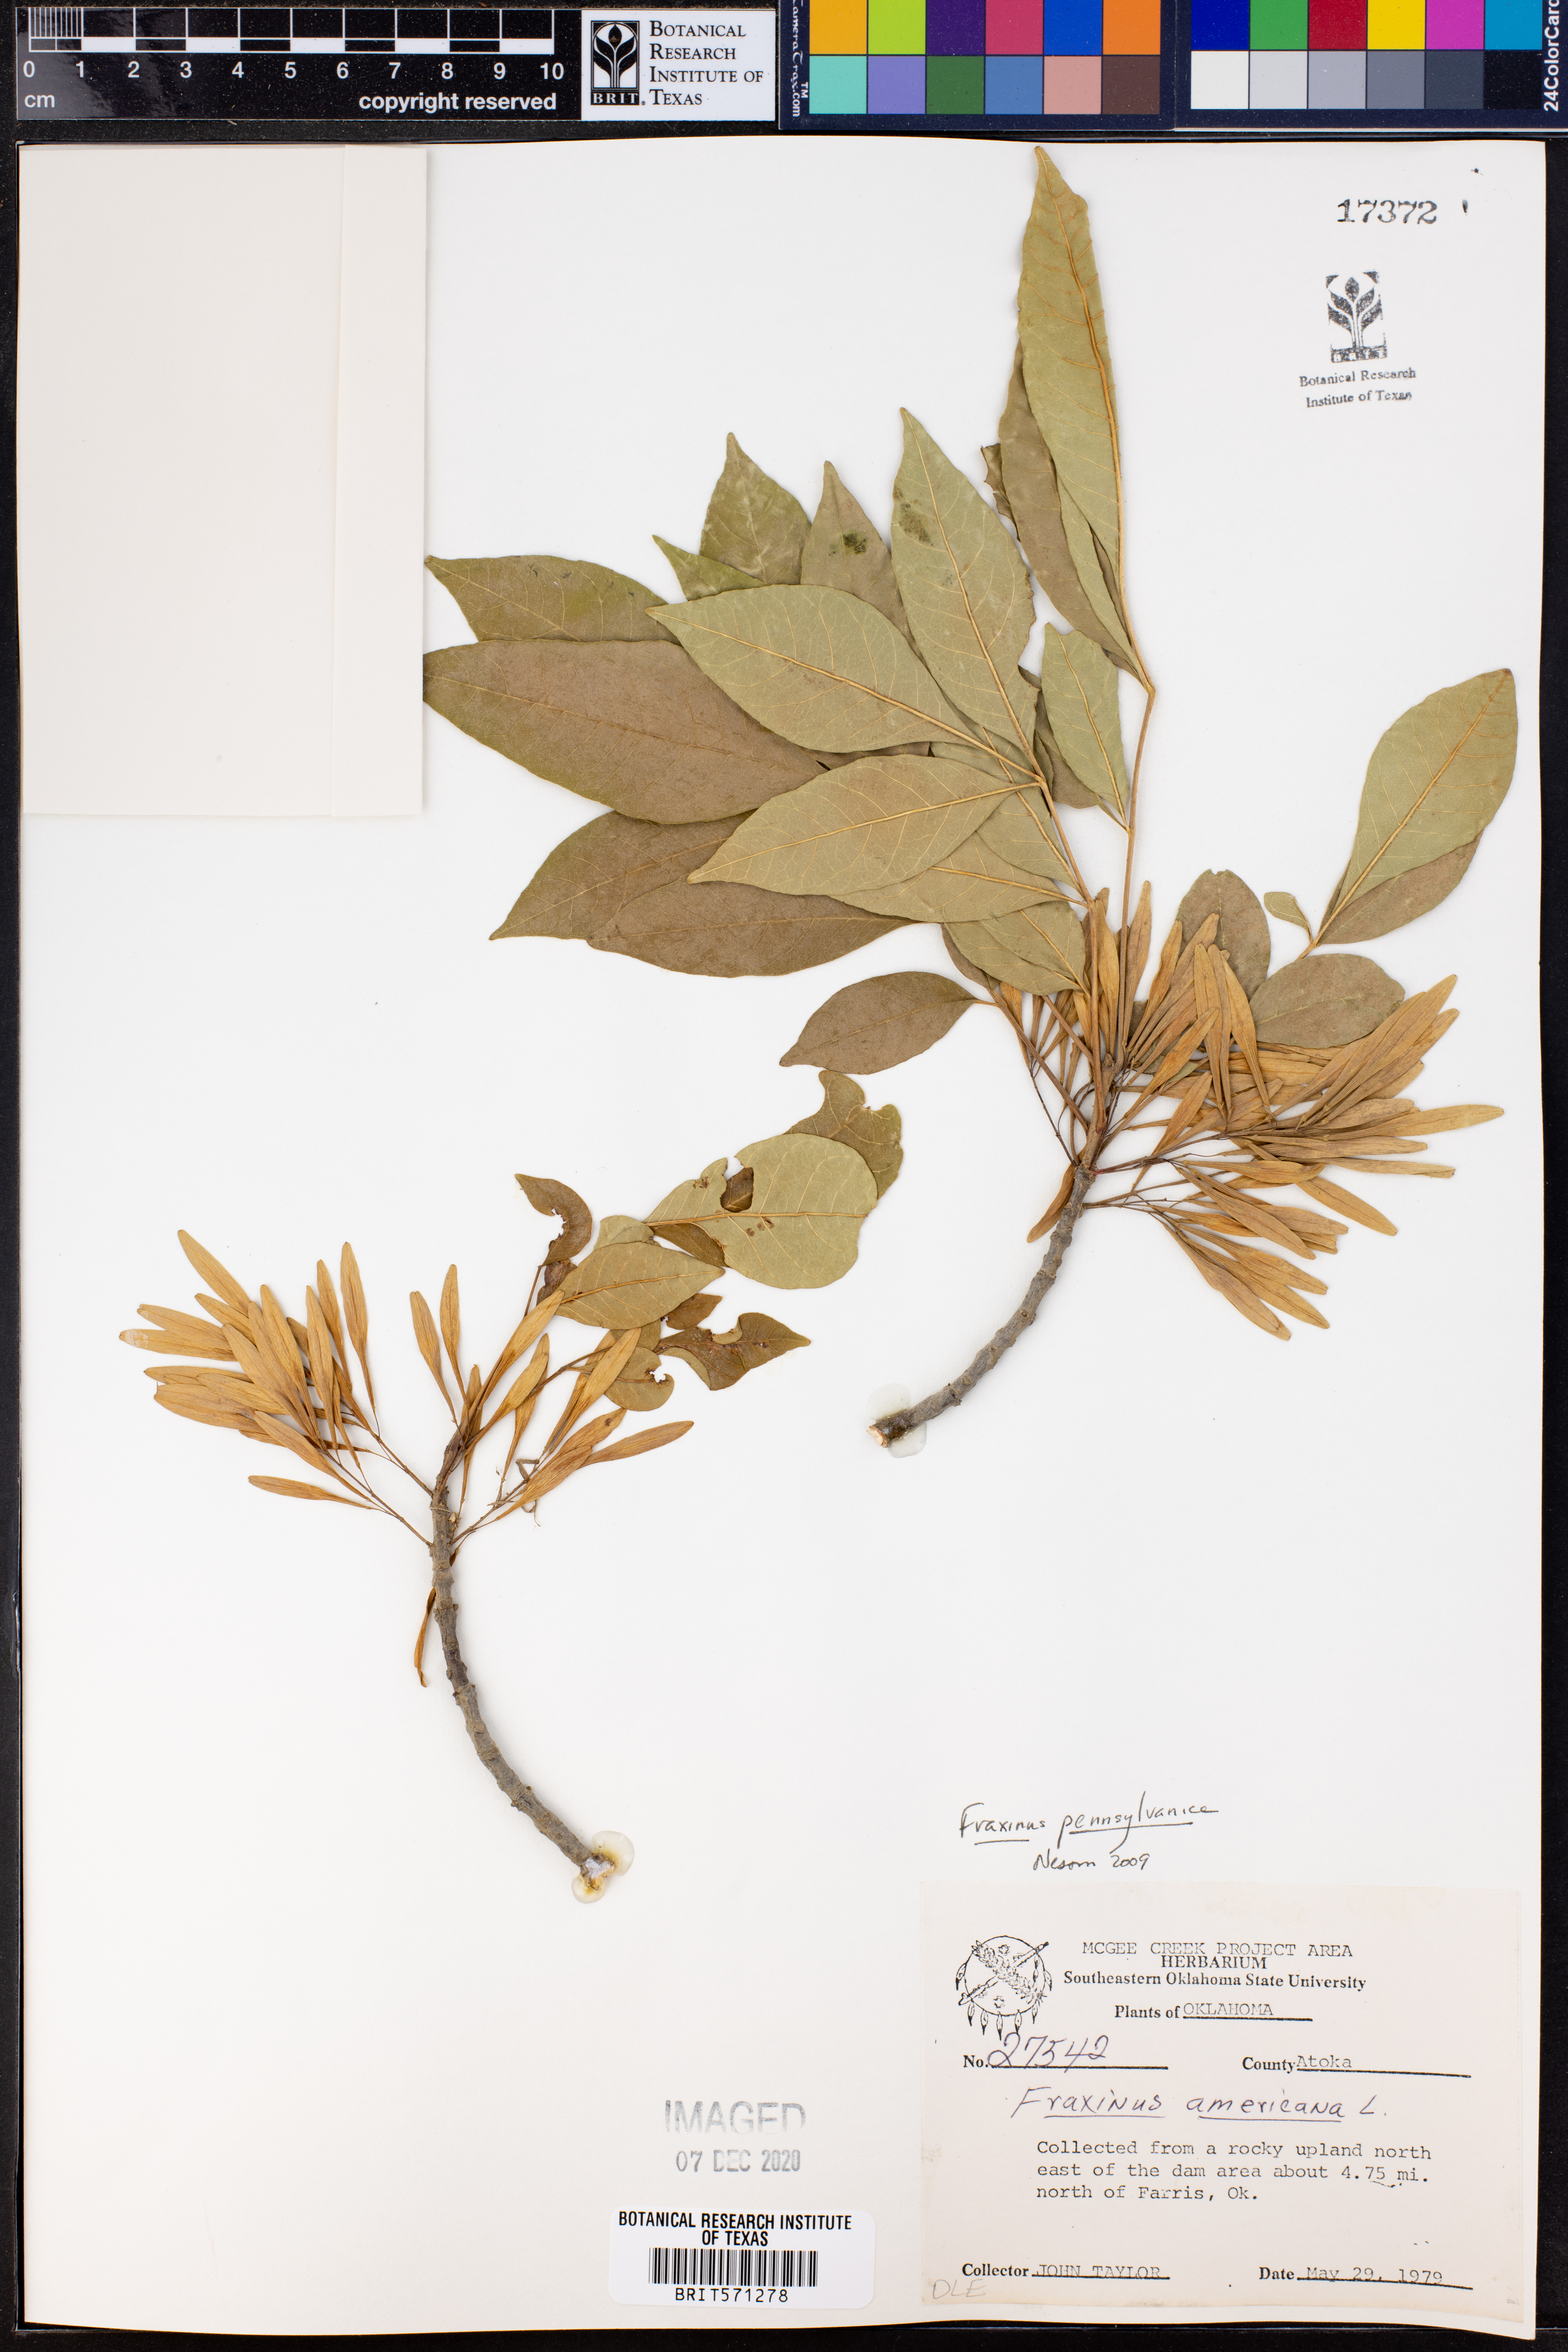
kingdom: Plantae
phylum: Tracheophyta
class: Magnoliopsida
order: Lamiales
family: Oleaceae
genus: Fraxinus
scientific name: Fraxinus pennsylvanica
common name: Green ash
